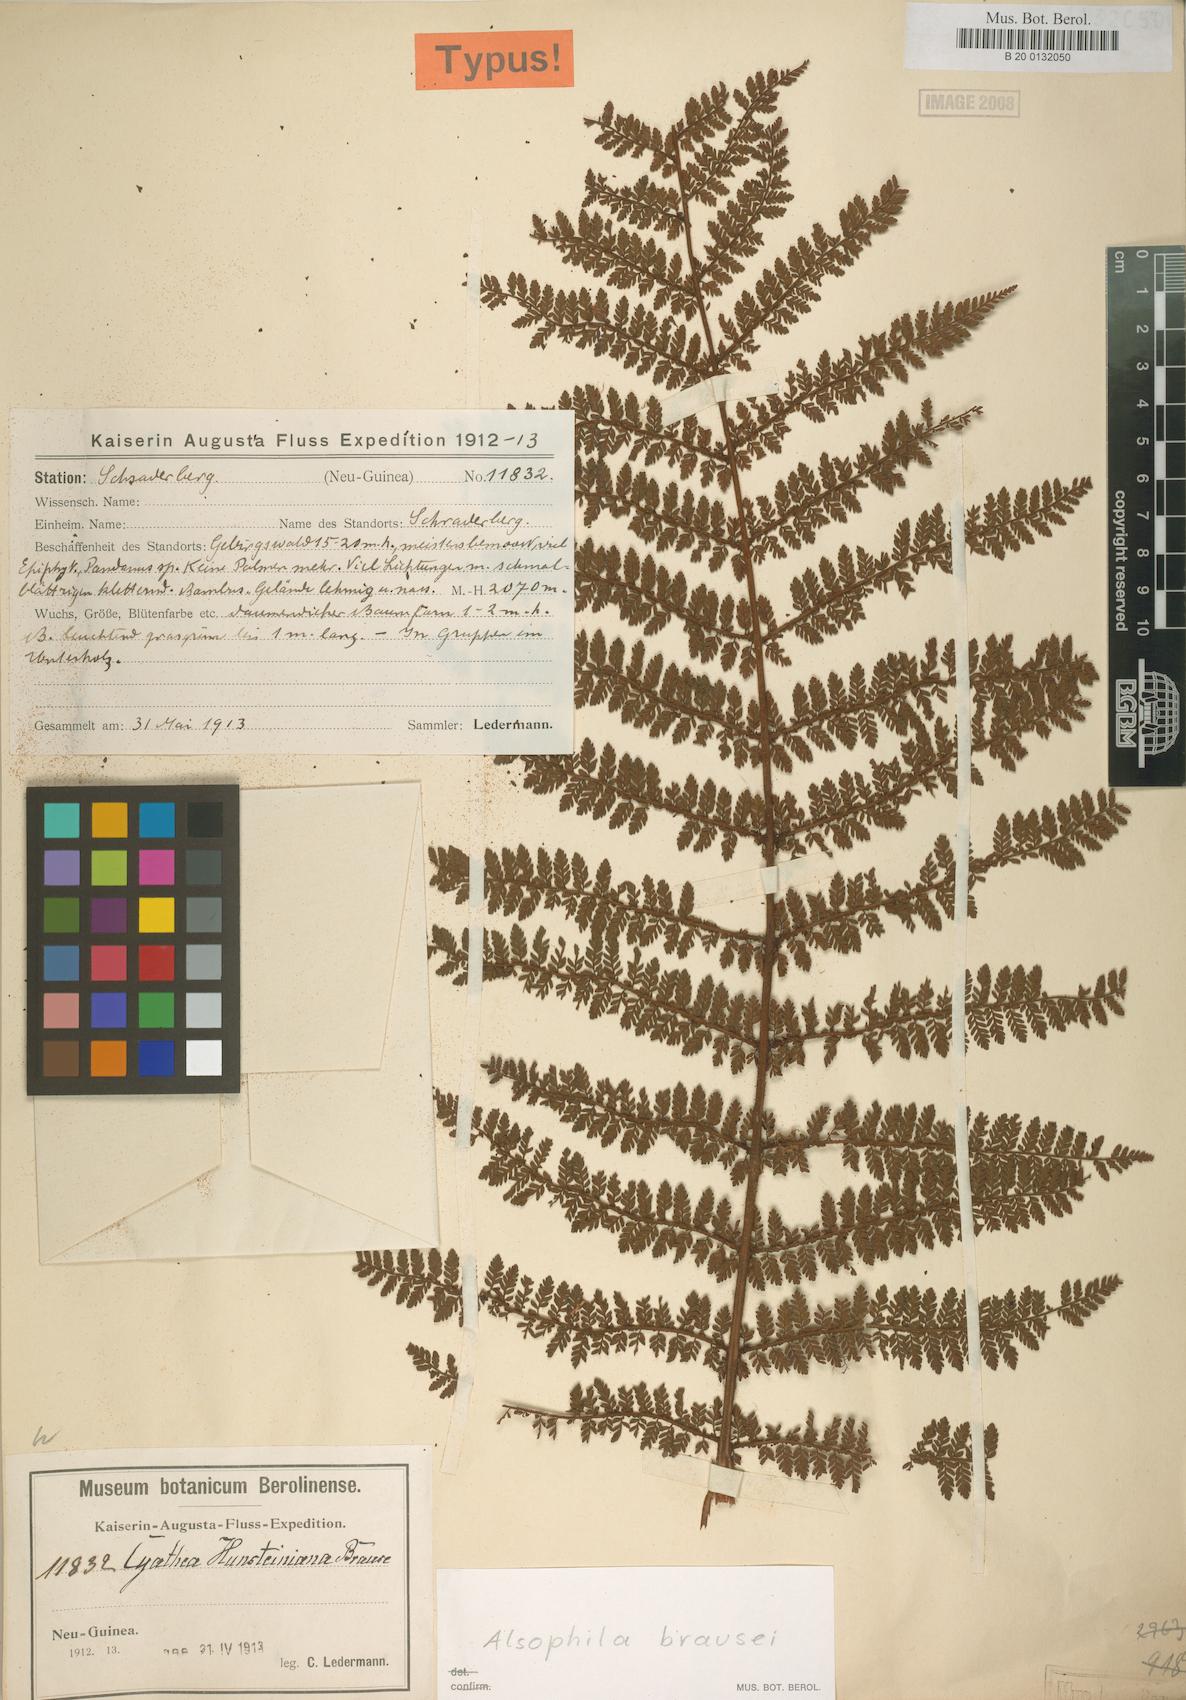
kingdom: Plantae
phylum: Tracheophyta
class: Polypodiopsida
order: Cyatheales
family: Cyatheaceae
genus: Alsophila
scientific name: Alsophila rubiginosa
